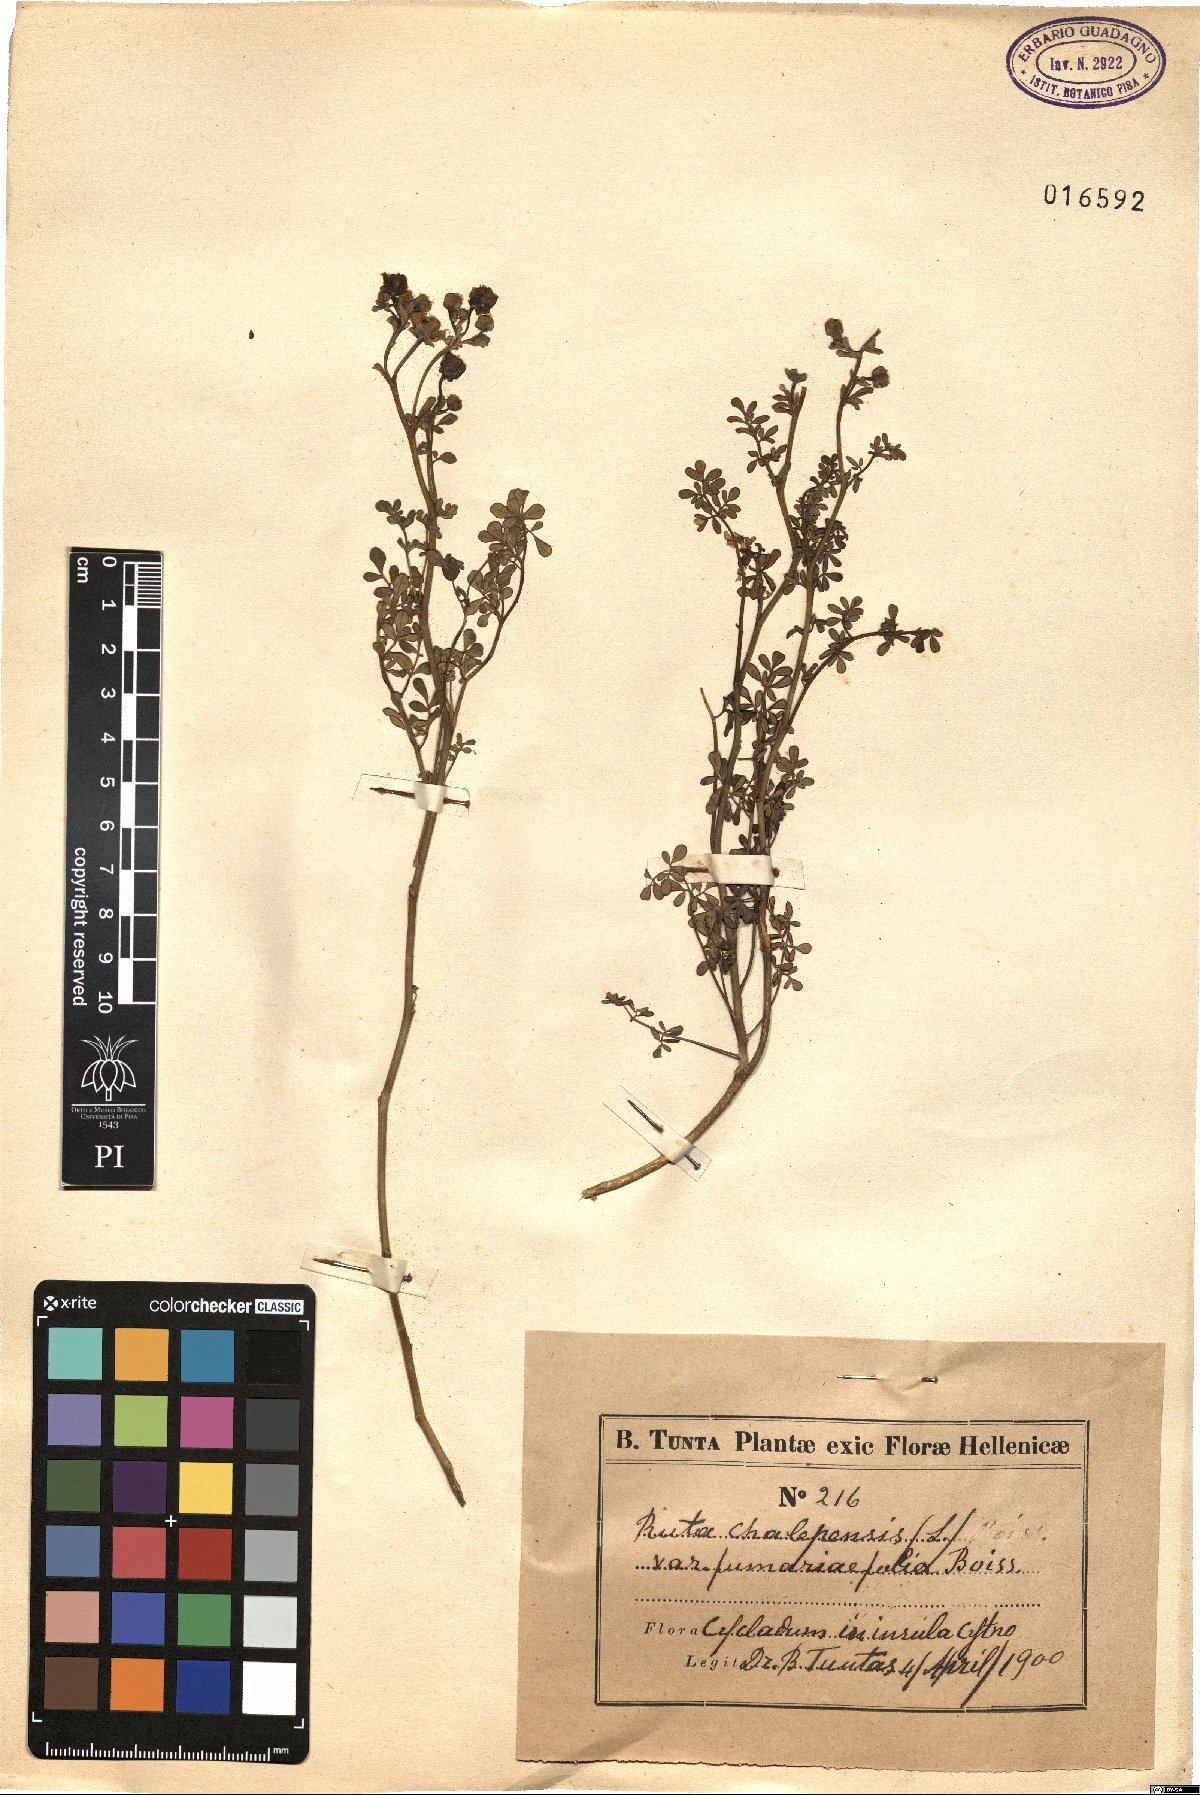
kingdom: Plantae
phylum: Tracheophyta
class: Magnoliopsida
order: Sapindales
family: Rutaceae
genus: Ruta
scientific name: Ruta chalepensis
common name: Fringed rue
